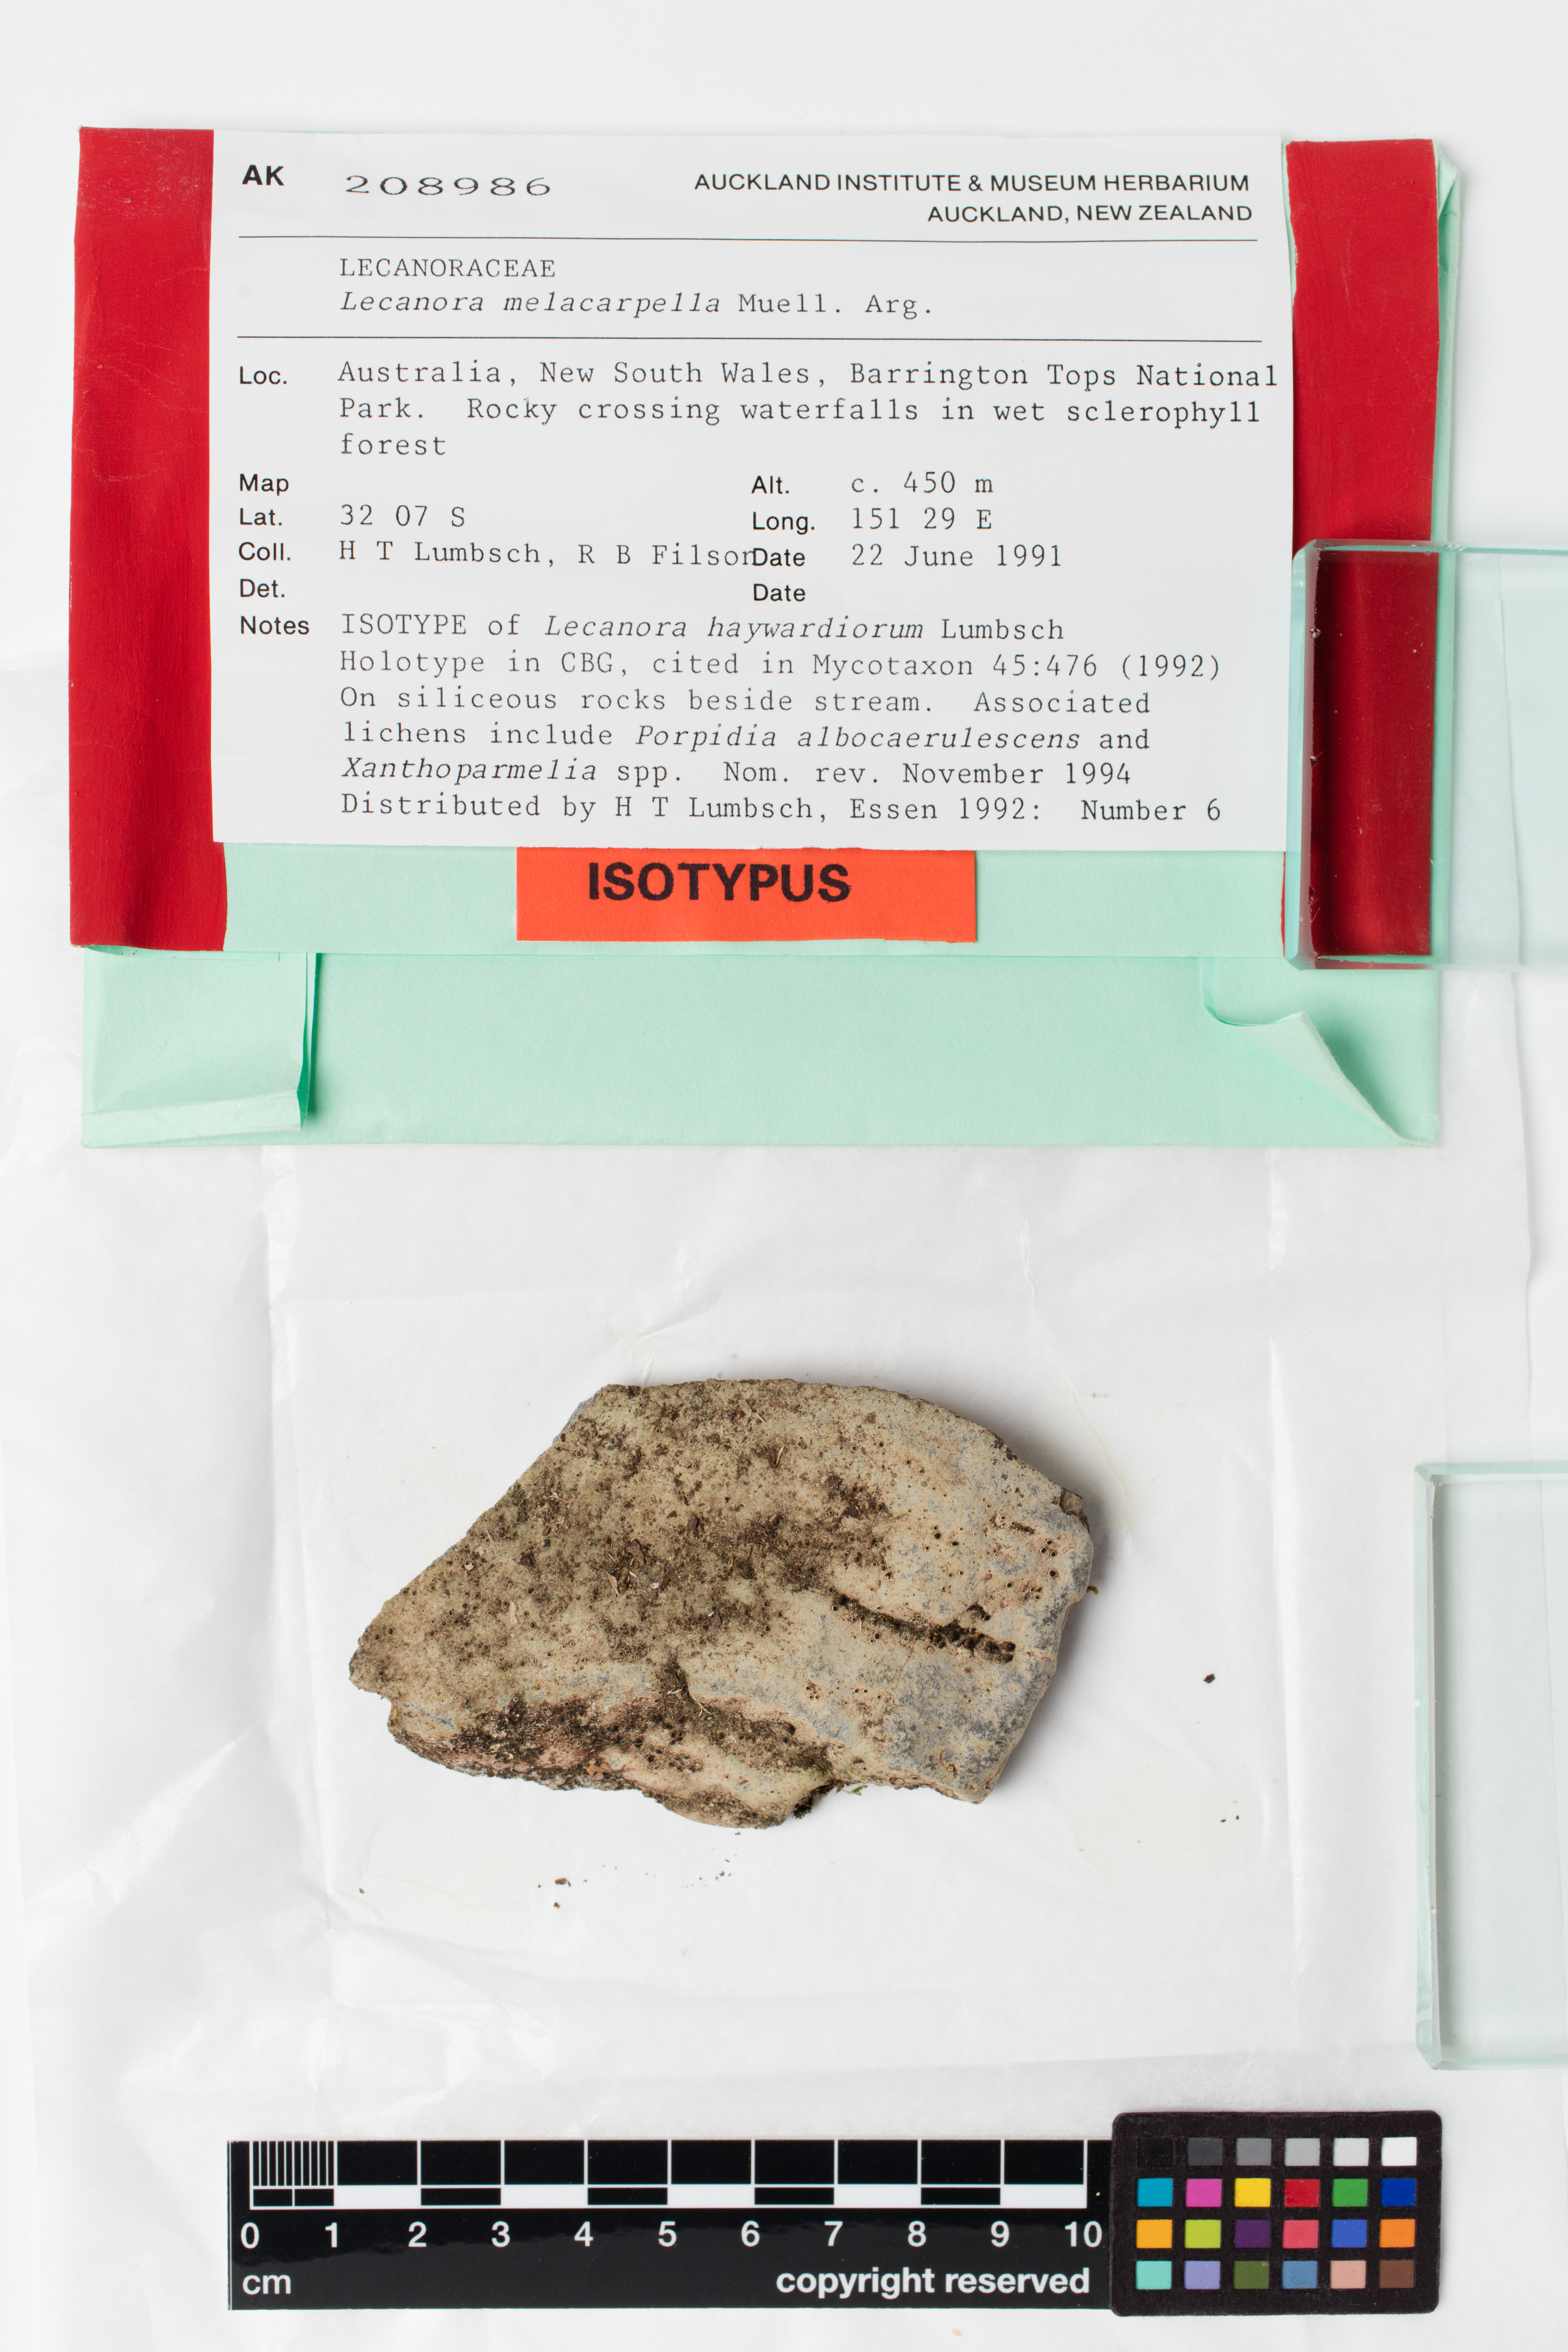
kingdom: Fungi
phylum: Ascomycota
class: Lecanoromycetes
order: Lecanorales
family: Lecanoraceae
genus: Lecanora
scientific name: Lecanora melacarpella
